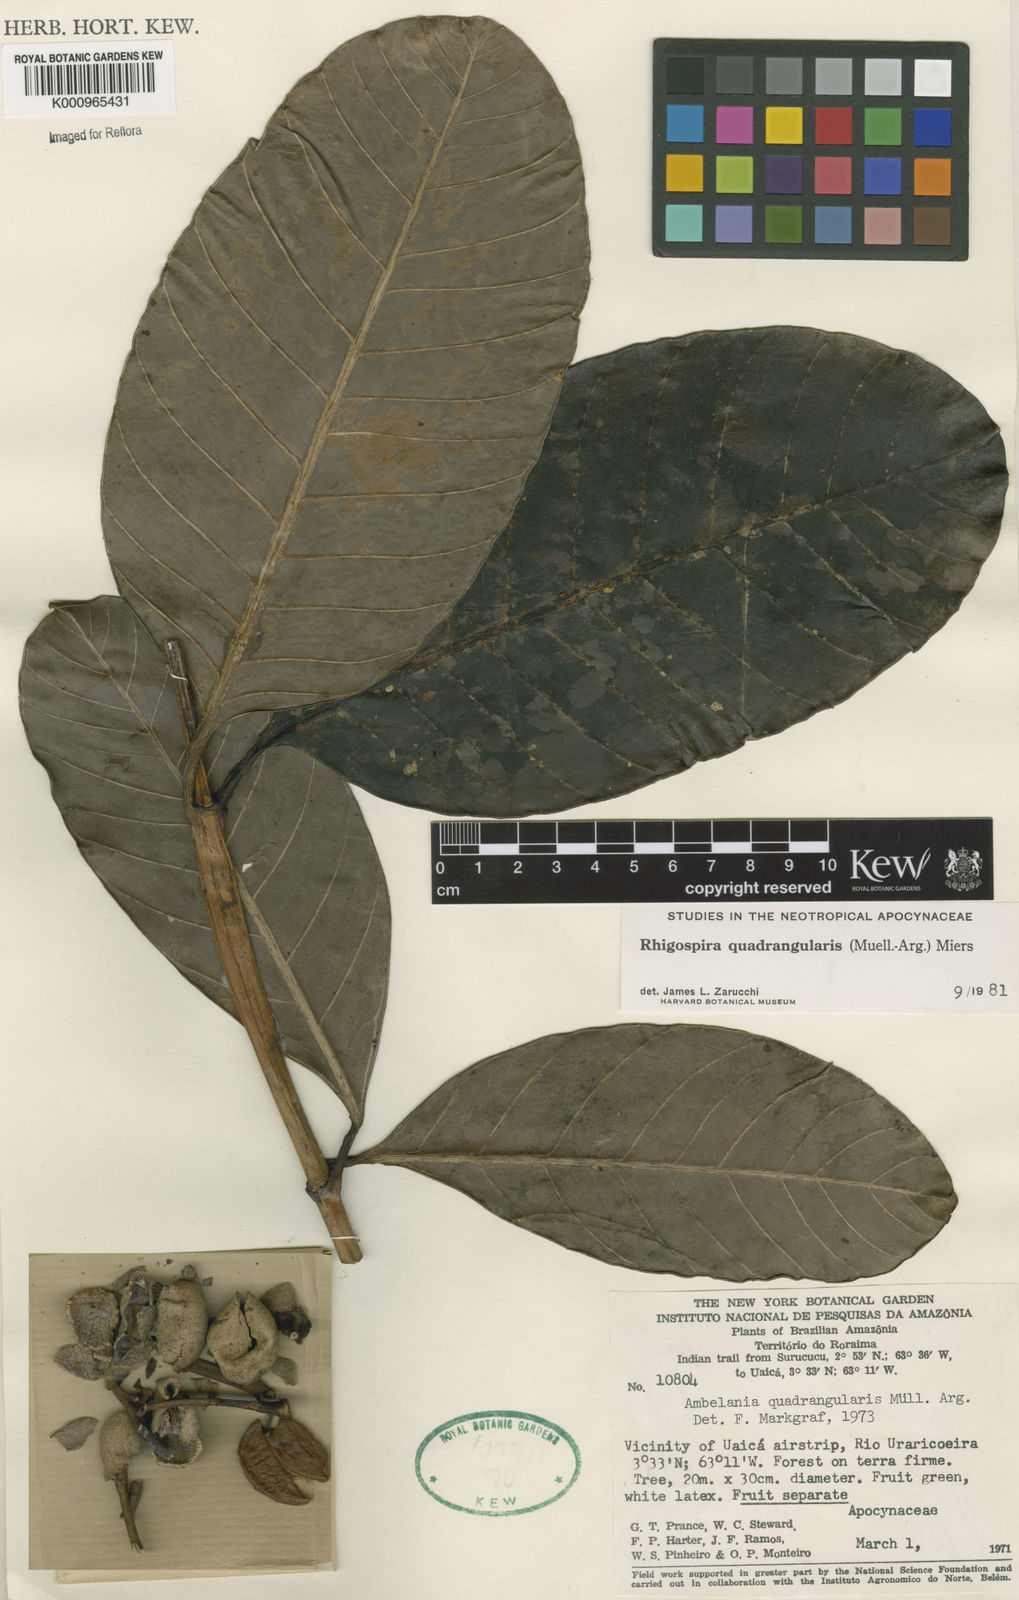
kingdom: Plantae
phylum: Tracheophyta
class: Magnoliopsida
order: Gentianales
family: Apocynaceae
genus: Rhigospira
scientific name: Rhigospira quadrangularis
